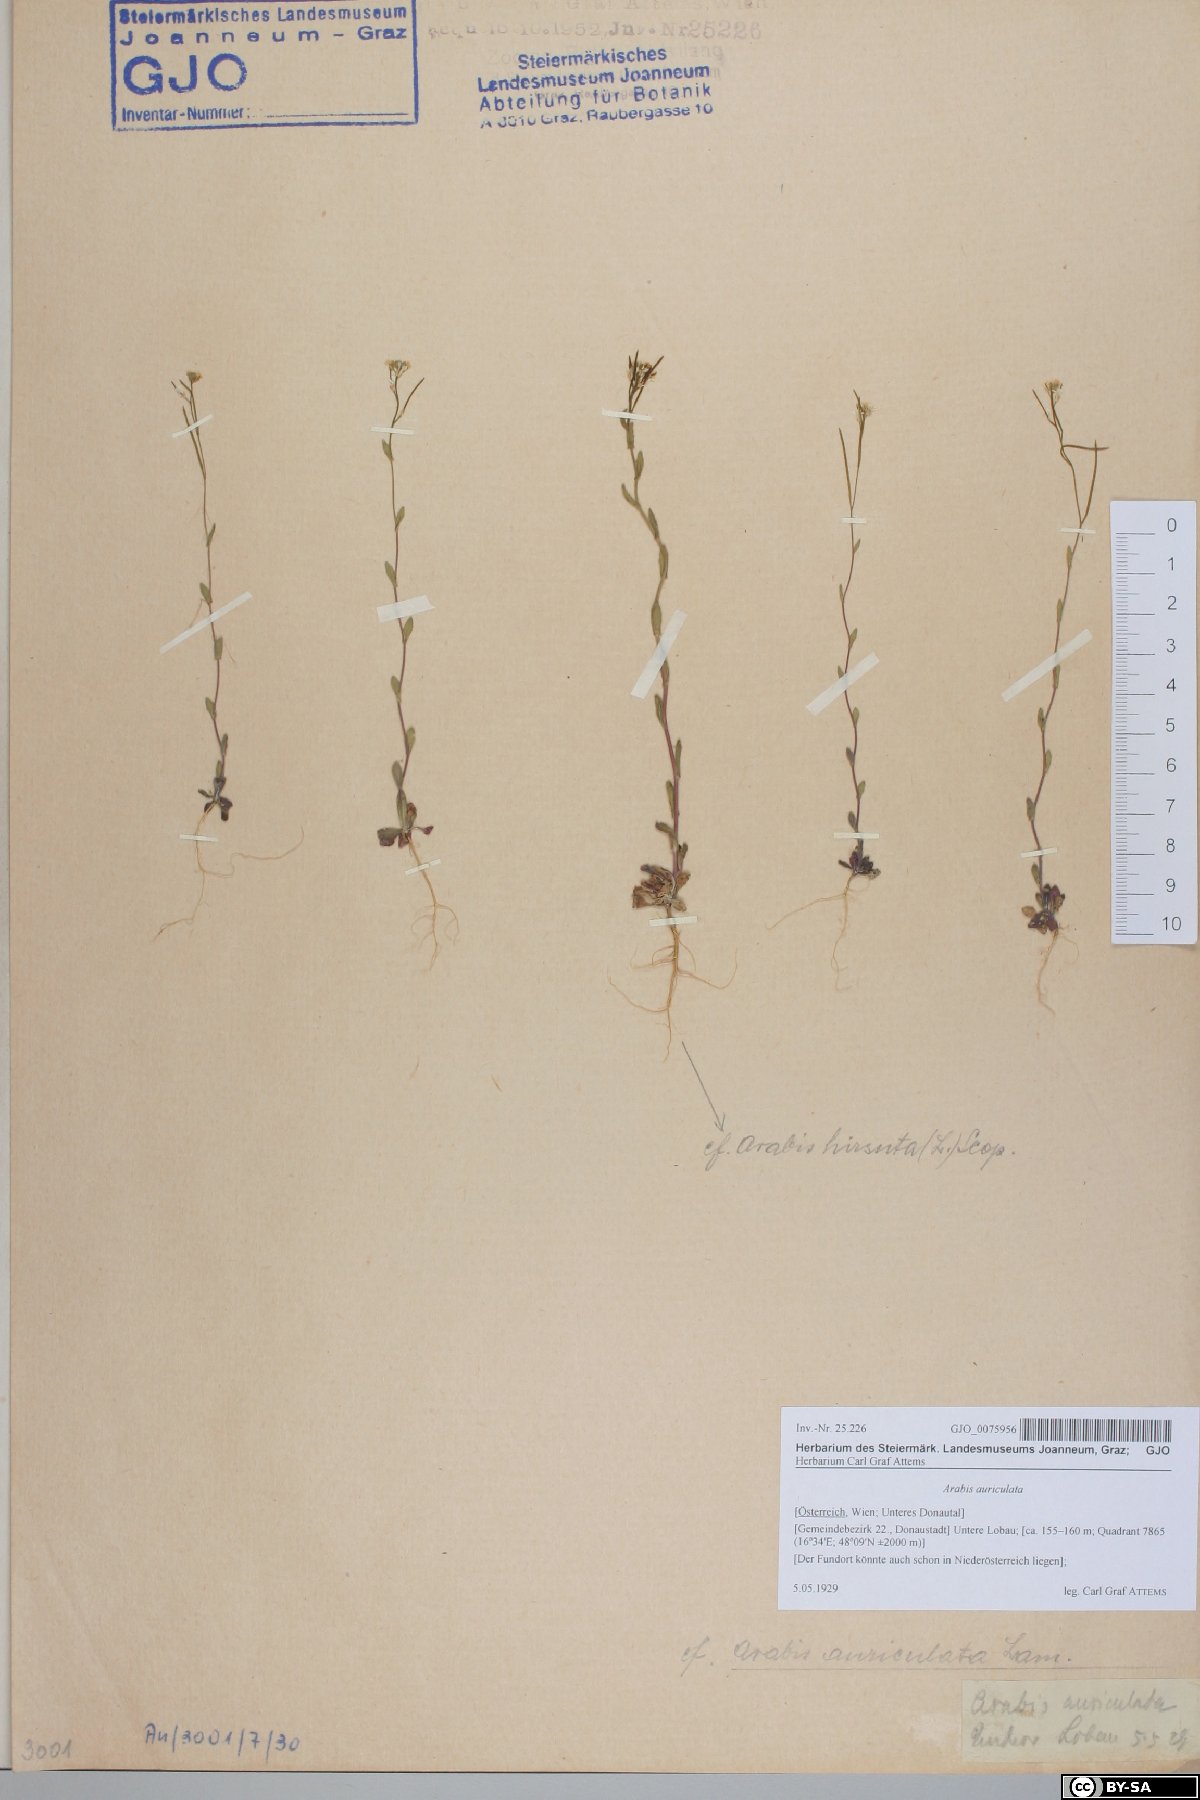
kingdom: Plantae
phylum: Tracheophyta
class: Magnoliopsida
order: Brassicales
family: Brassicaceae
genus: Arabis
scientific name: Arabis auriculata
